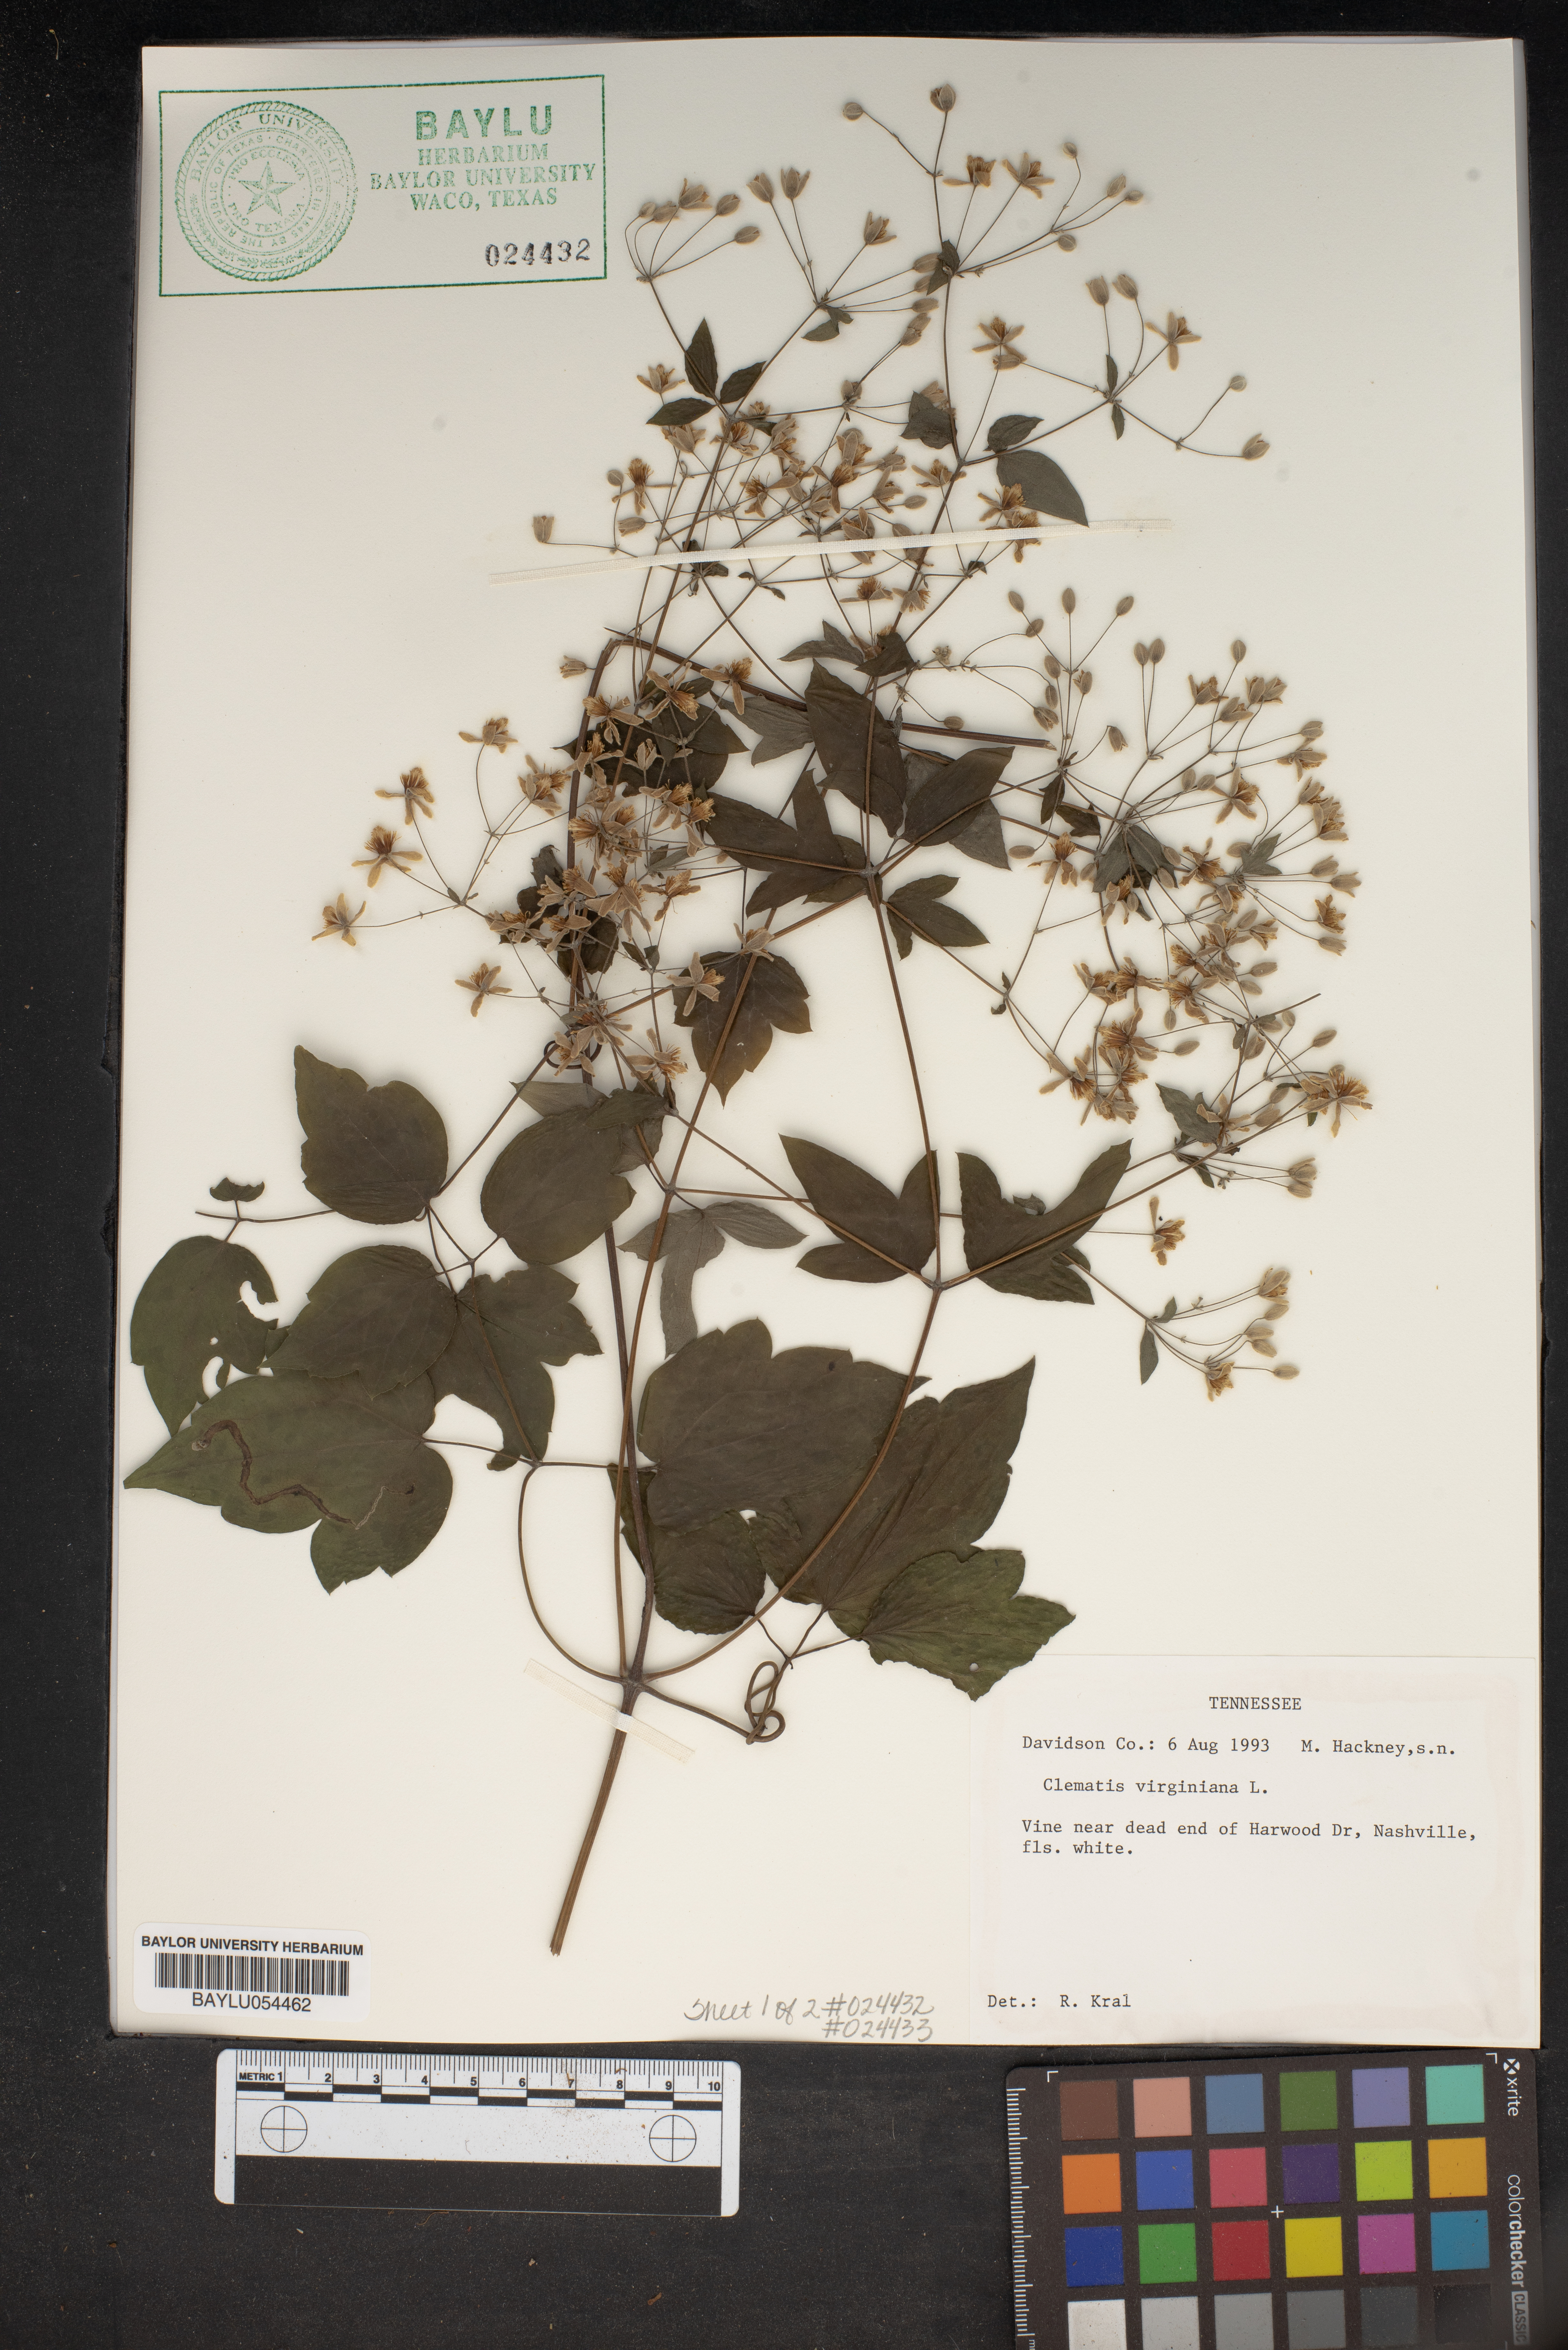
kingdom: Plantae
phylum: Tracheophyta
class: Magnoliopsida
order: Ranunculales
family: Ranunculaceae
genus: Clematis
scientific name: Clematis virginiana
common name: Virgin's-bower
